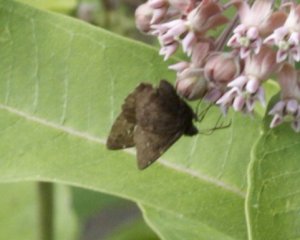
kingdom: Animalia
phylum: Arthropoda
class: Insecta
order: Lepidoptera
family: Hesperiidae
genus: Autochton
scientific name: Autochton
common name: Northern Cloudywing
